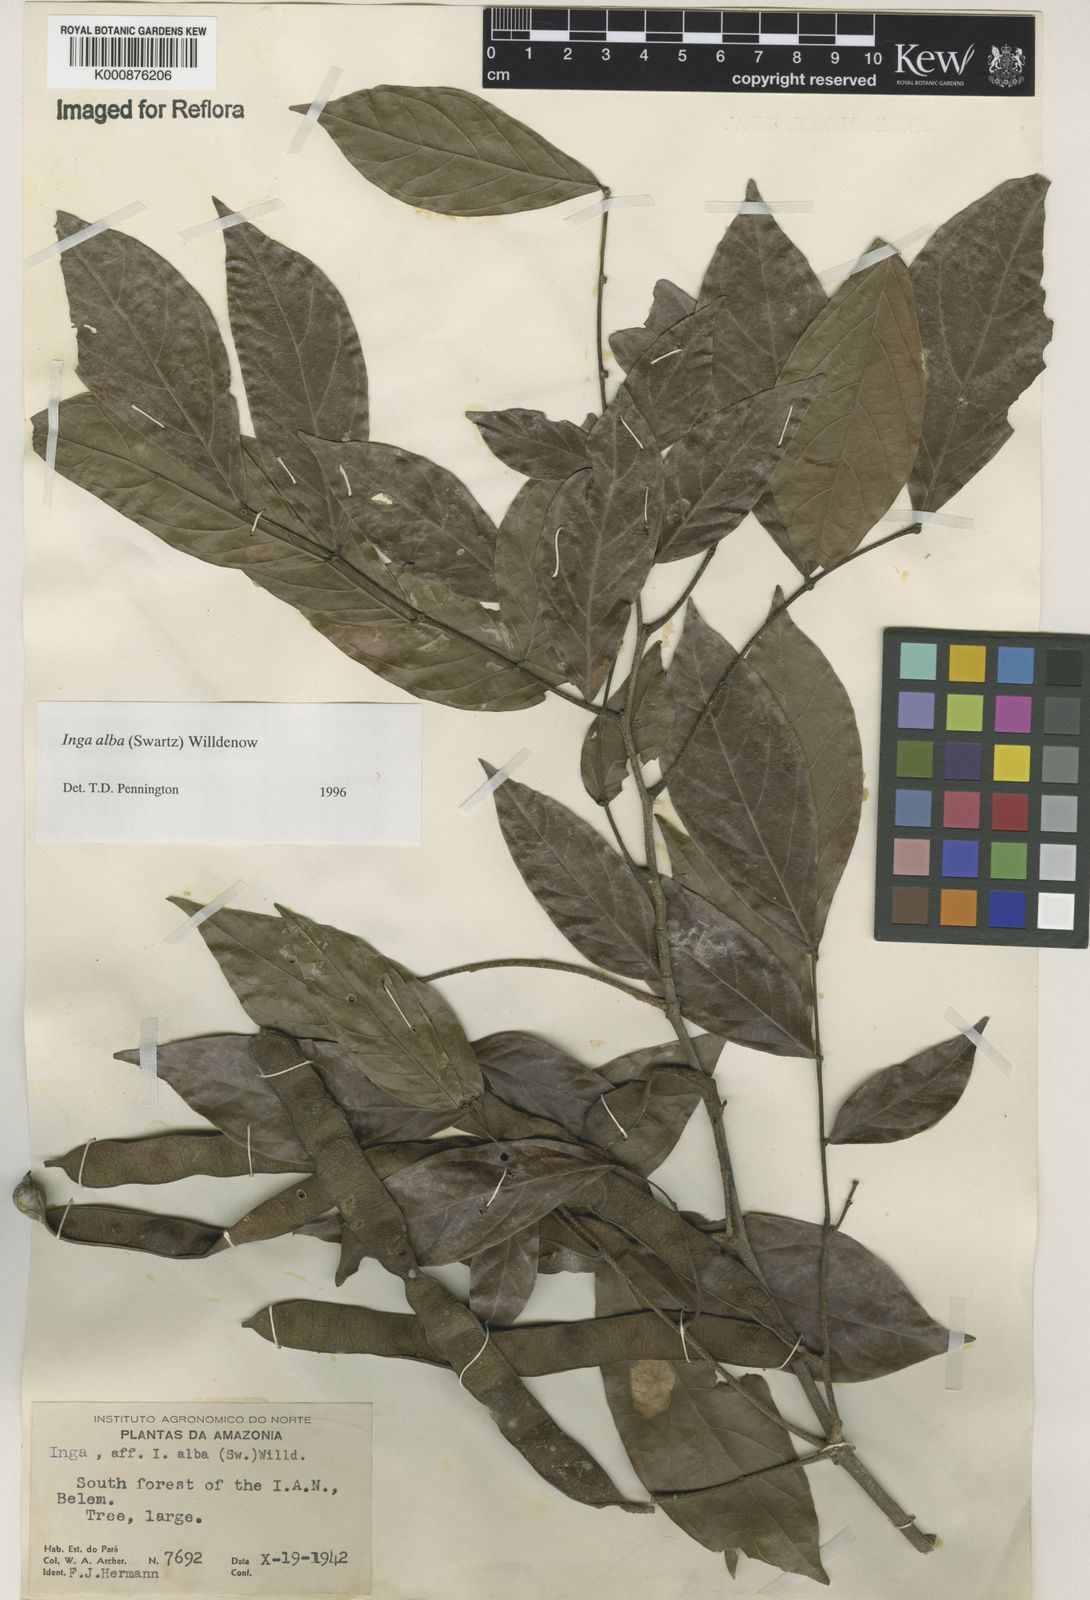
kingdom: Plantae
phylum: Tracheophyta
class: Magnoliopsida
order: Fabales
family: Fabaceae
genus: Inga
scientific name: Inga alba
